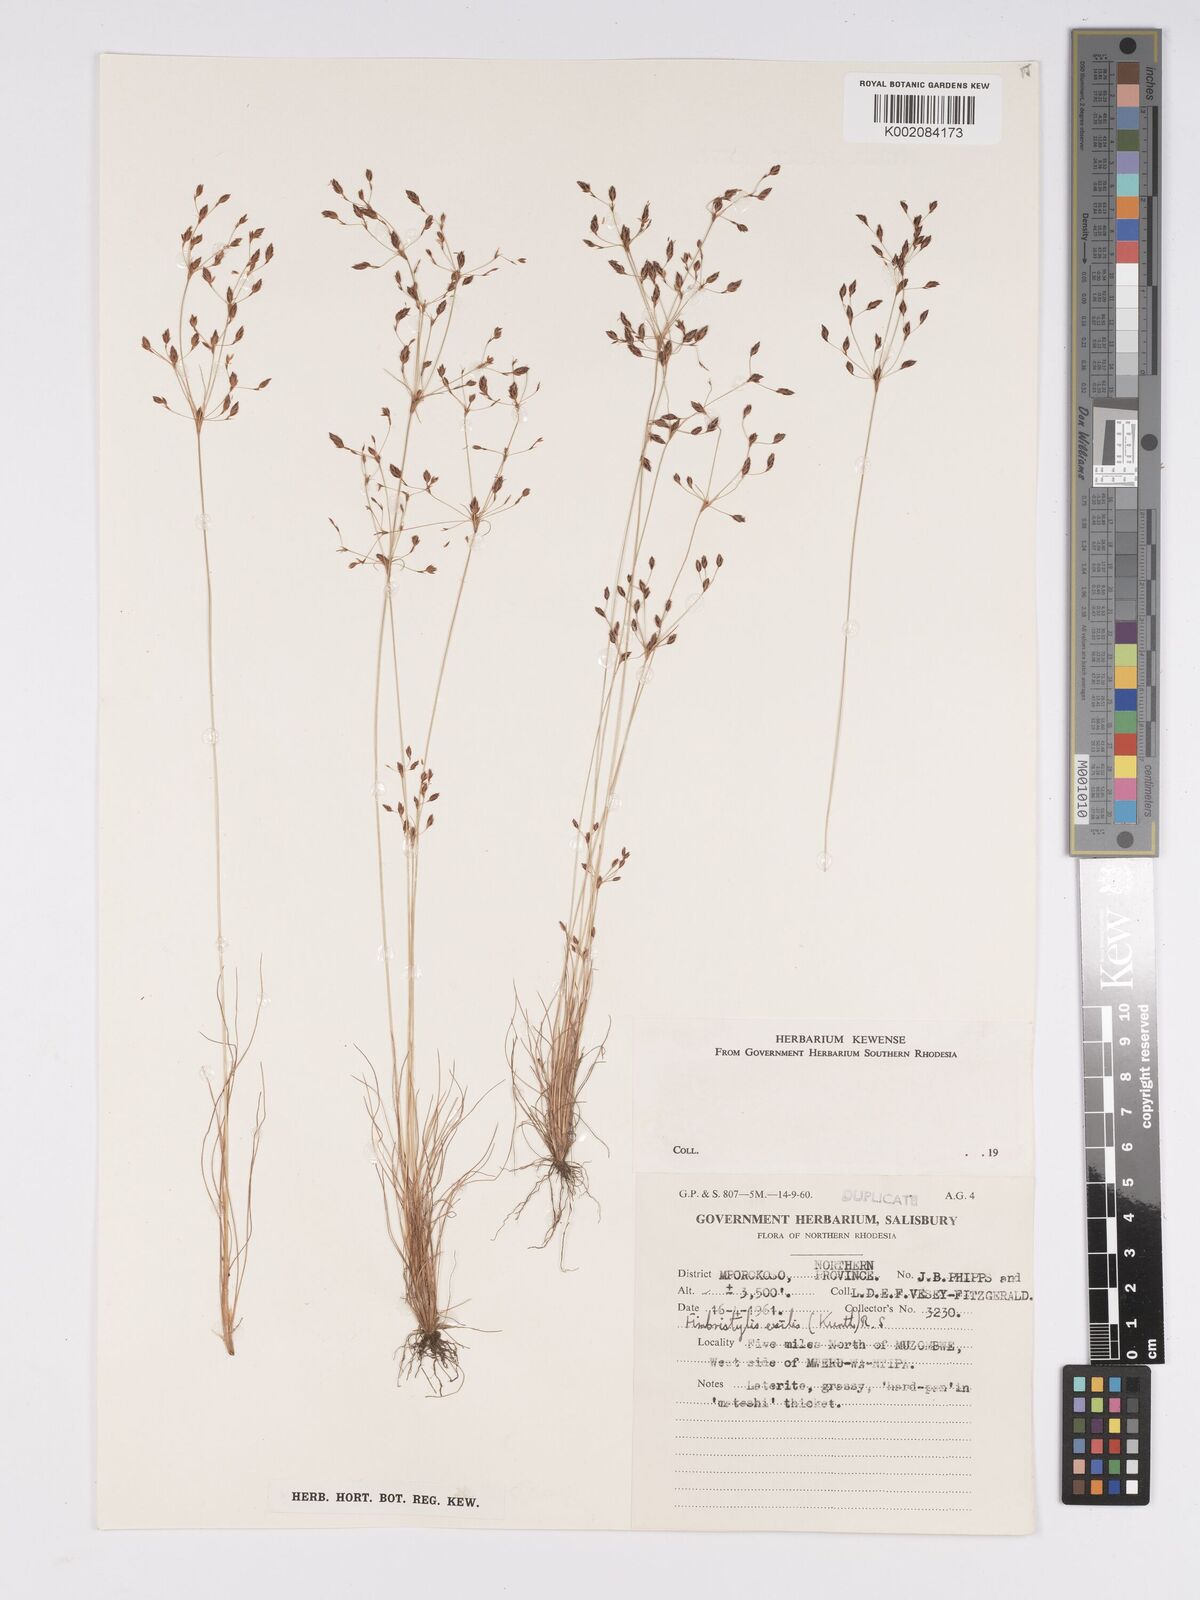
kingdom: Plantae
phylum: Tracheophyta
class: Liliopsida
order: Poales
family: Cyperaceae
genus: Bulbostylis
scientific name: Bulbostylis
